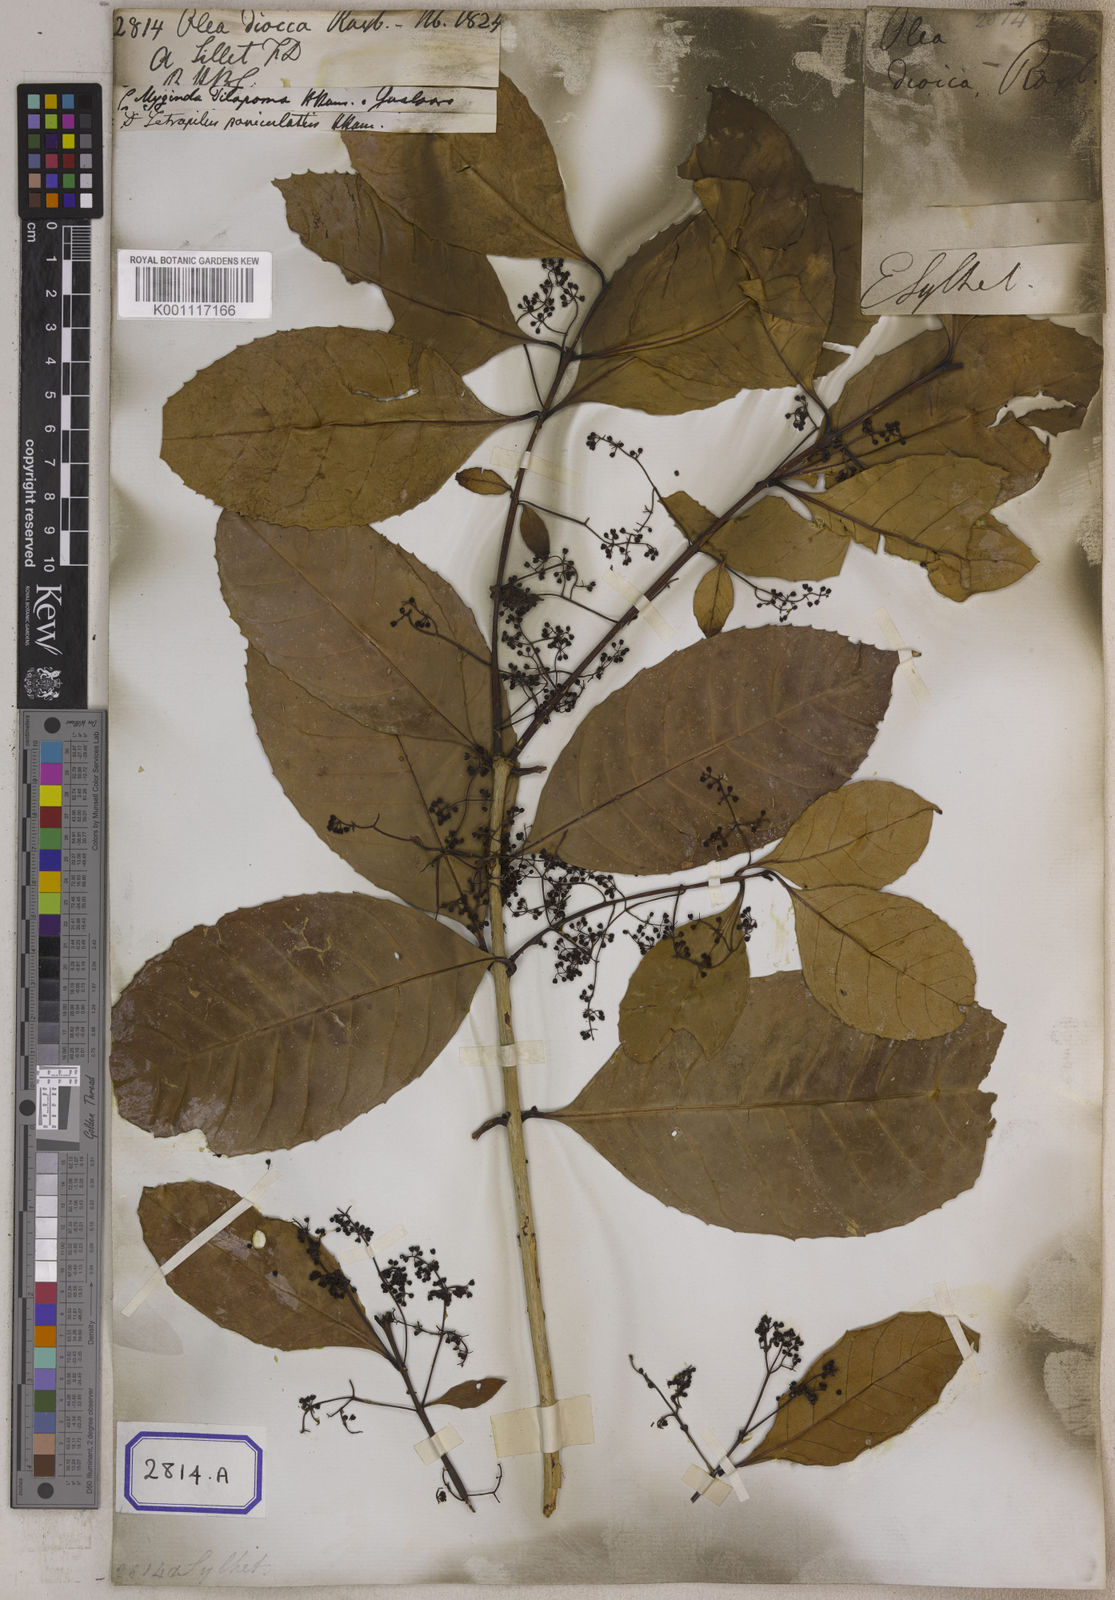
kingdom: Plantae
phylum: Tracheophyta
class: Magnoliopsida
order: Lamiales
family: Oleaceae
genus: Tetrapilus
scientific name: Tetrapilus dioicus
